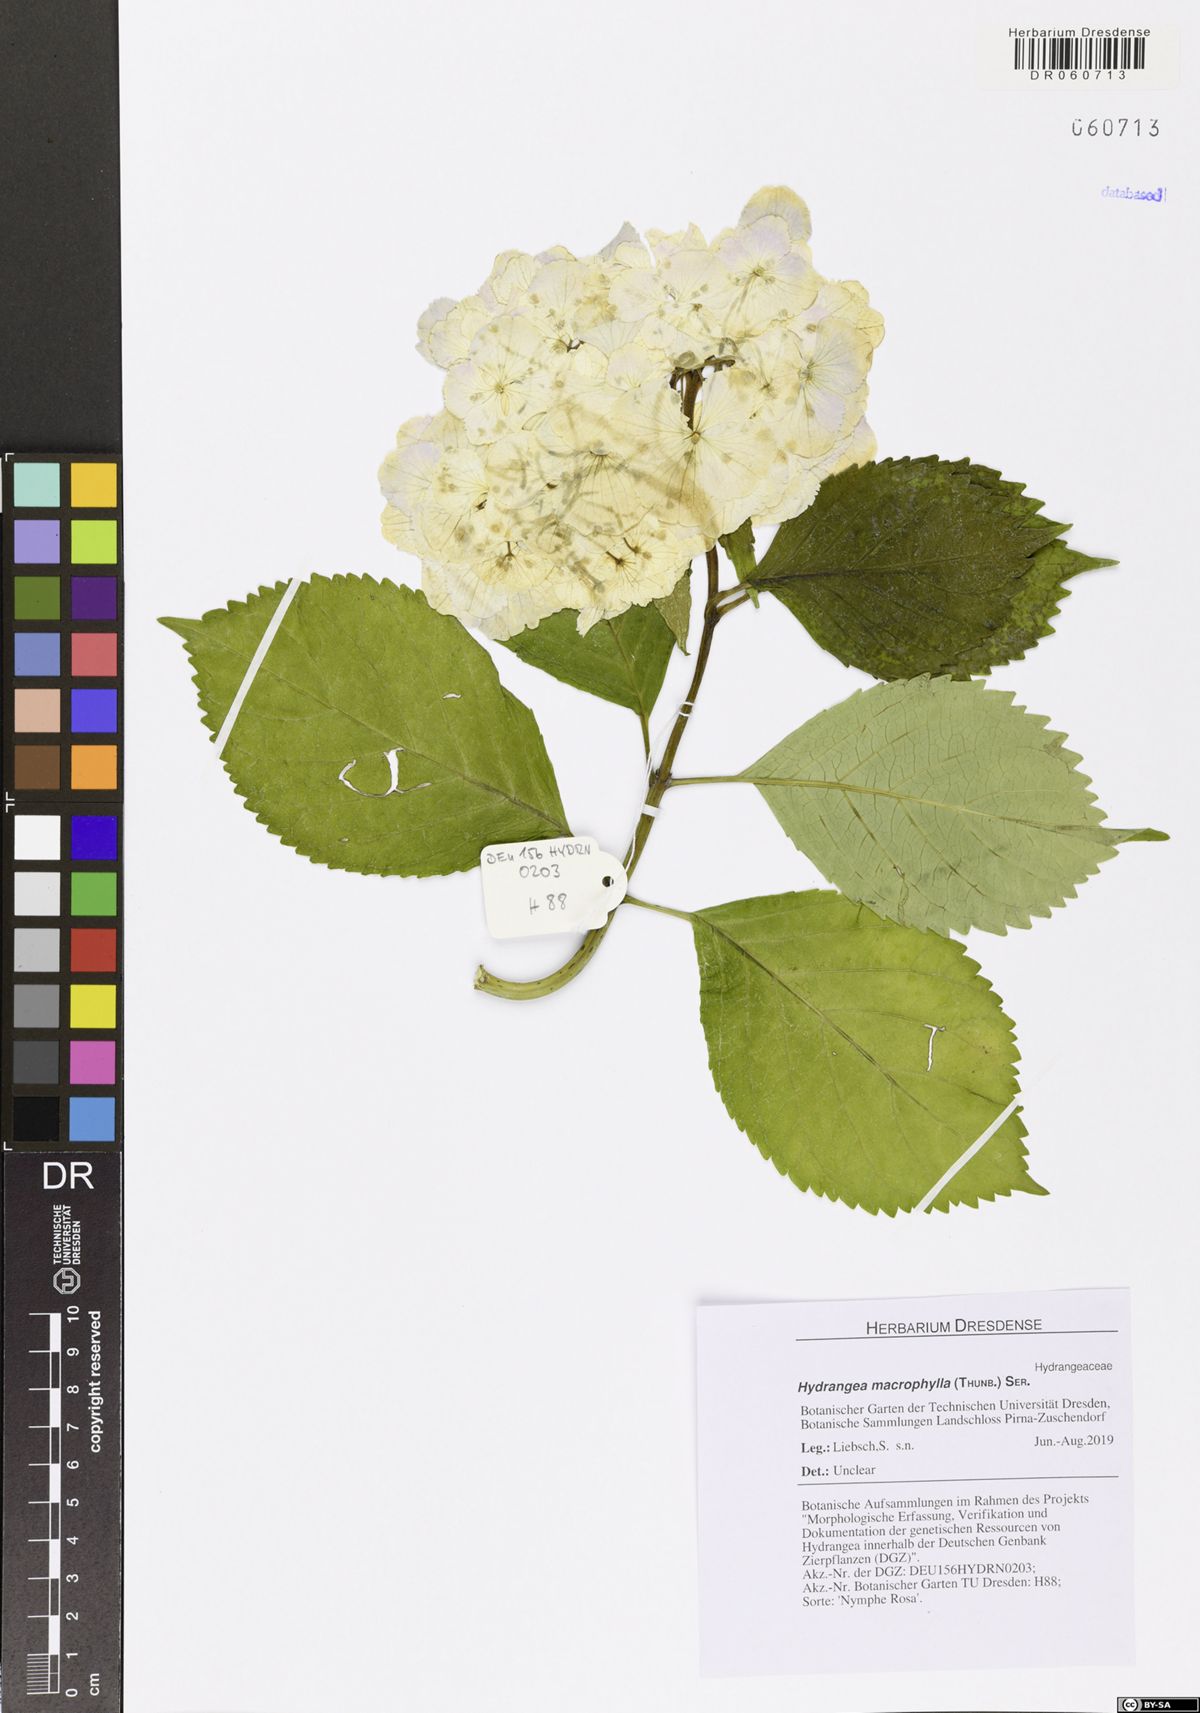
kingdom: Plantae
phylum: Tracheophyta
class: Magnoliopsida
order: Cornales
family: Hydrangeaceae
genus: Hydrangea
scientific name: Hydrangea macrophylla
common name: Hydrangea
